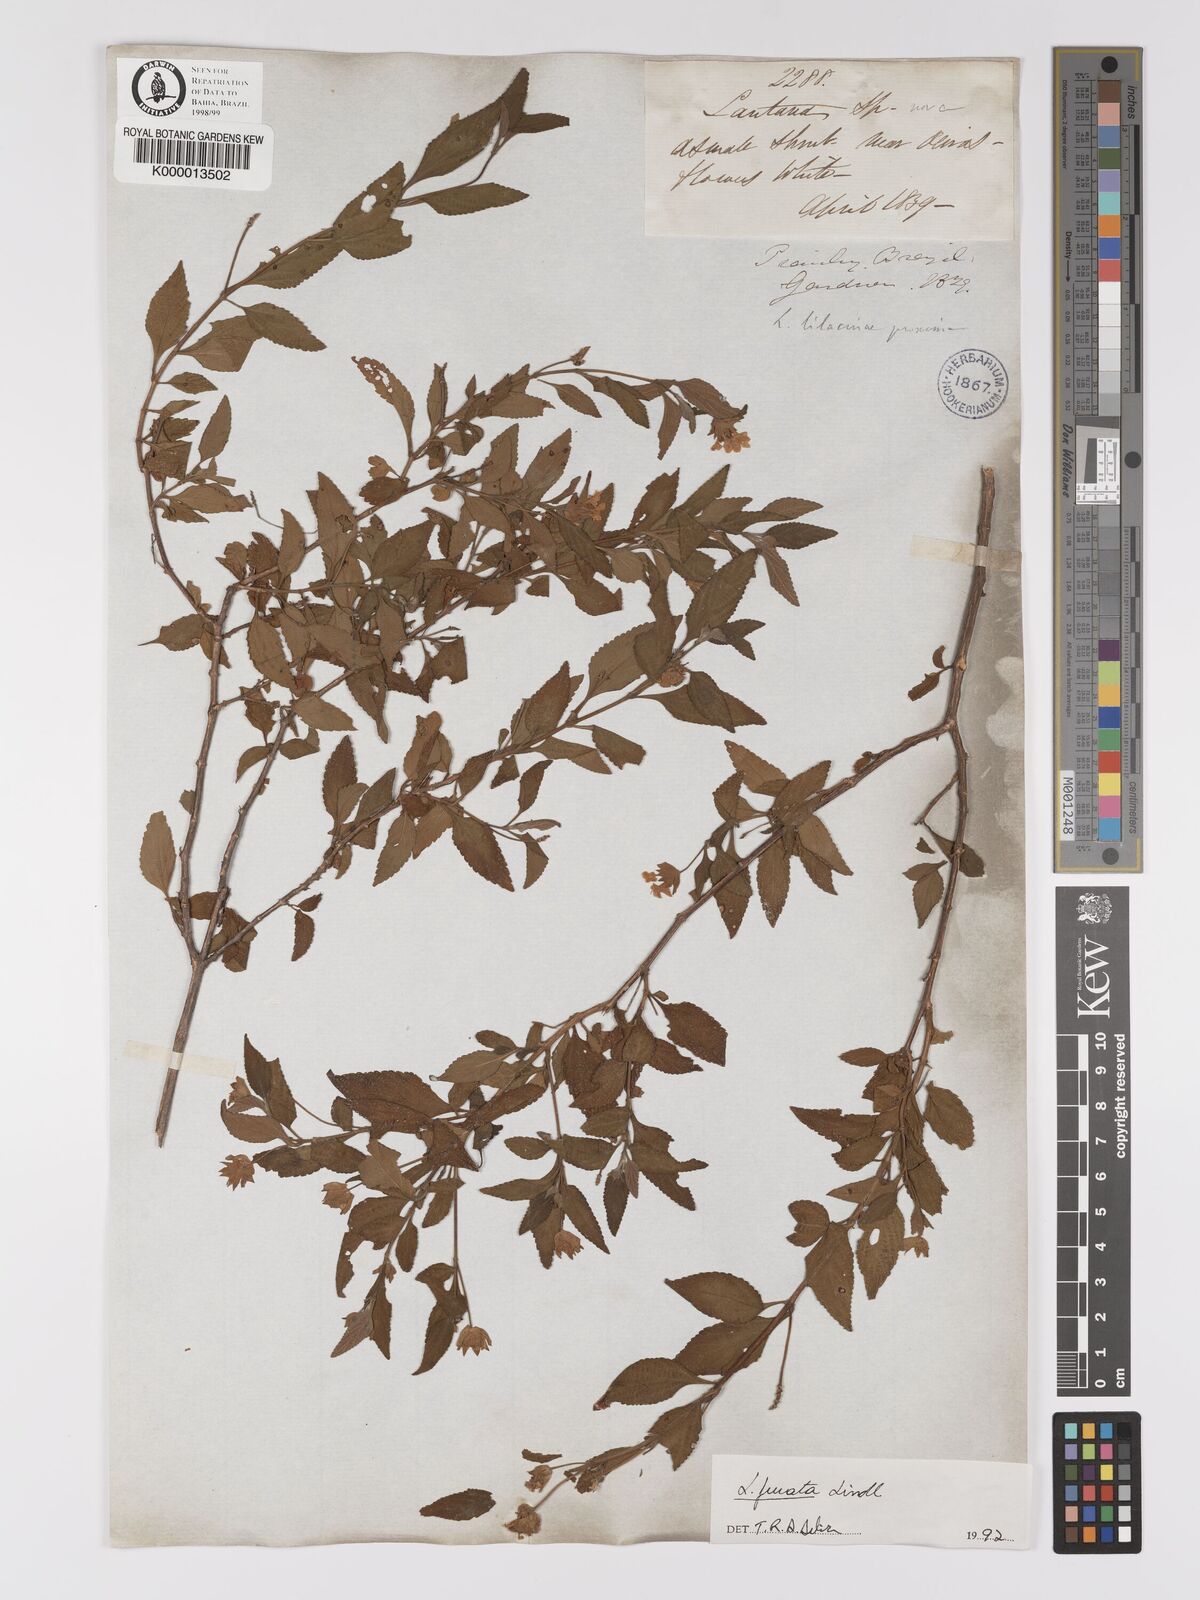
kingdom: Plantae
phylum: Tracheophyta
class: Magnoliopsida
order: Lamiales
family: Verbenaceae
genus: Lantana
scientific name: Lantana fucata
